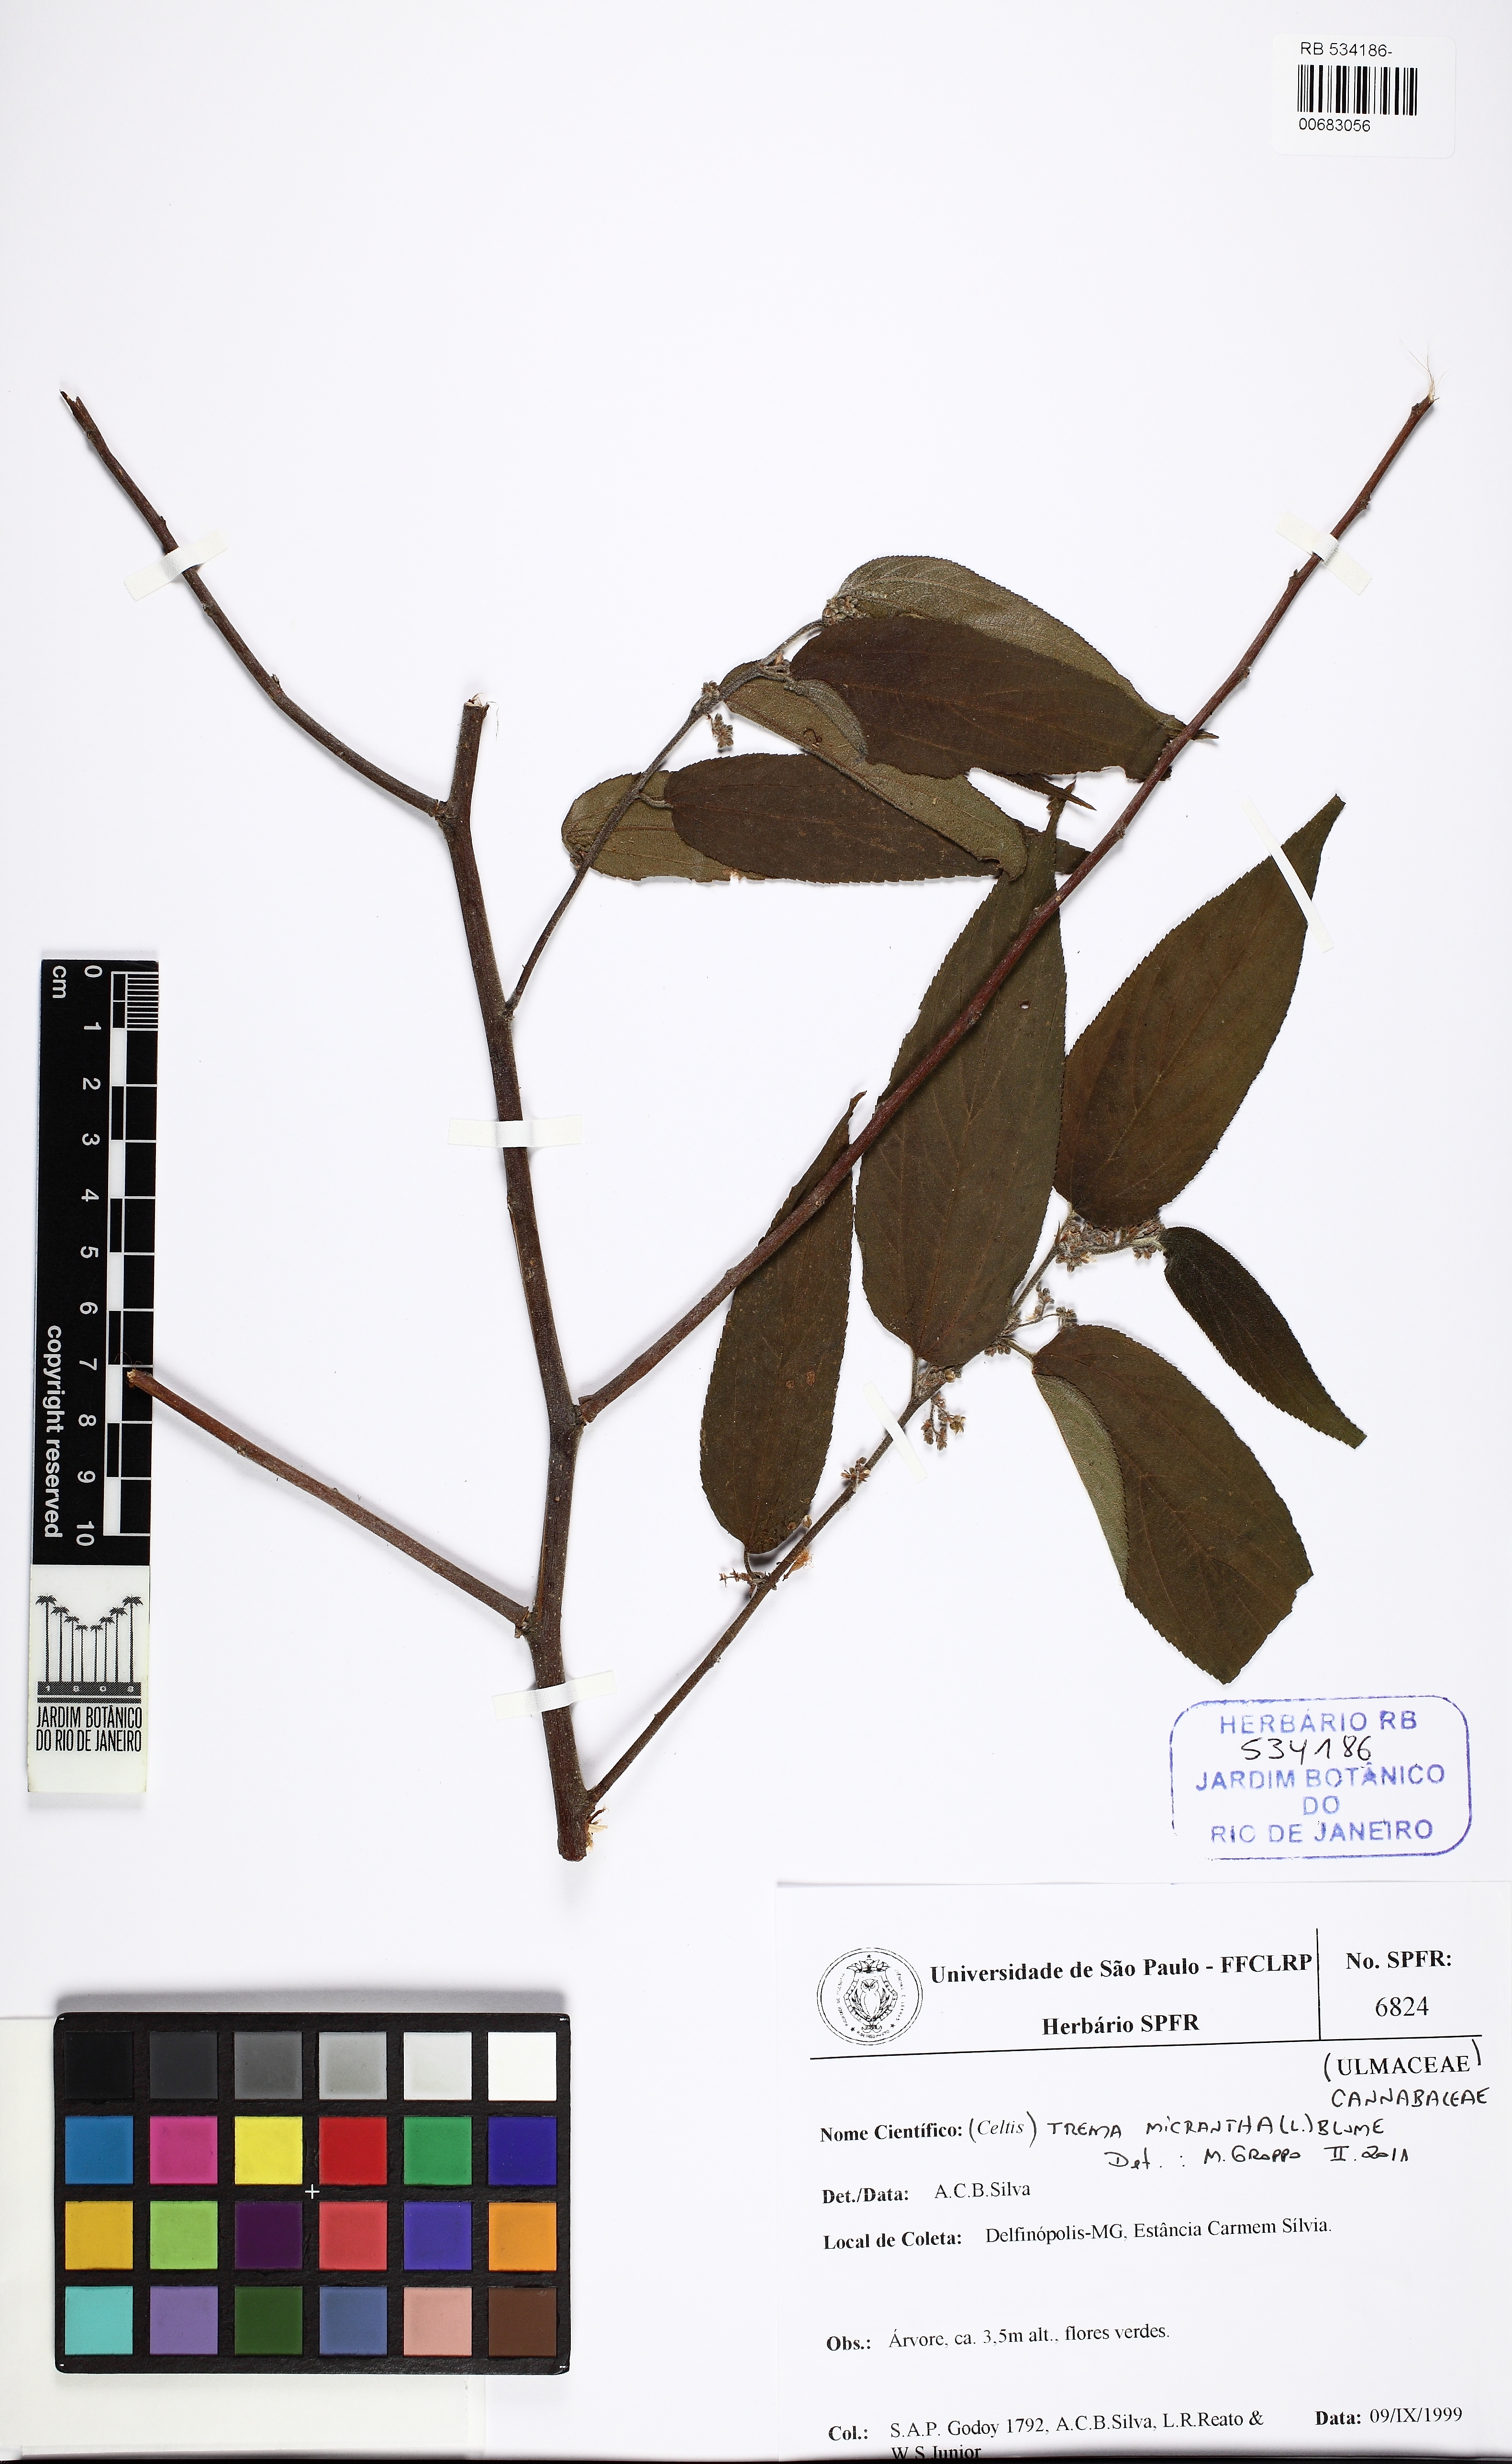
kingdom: Plantae
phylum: Tracheophyta
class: Magnoliopsida
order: Rosales
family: Cannabaceae
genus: Trema
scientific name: Trema micranthum
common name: Jamaican nettletree
